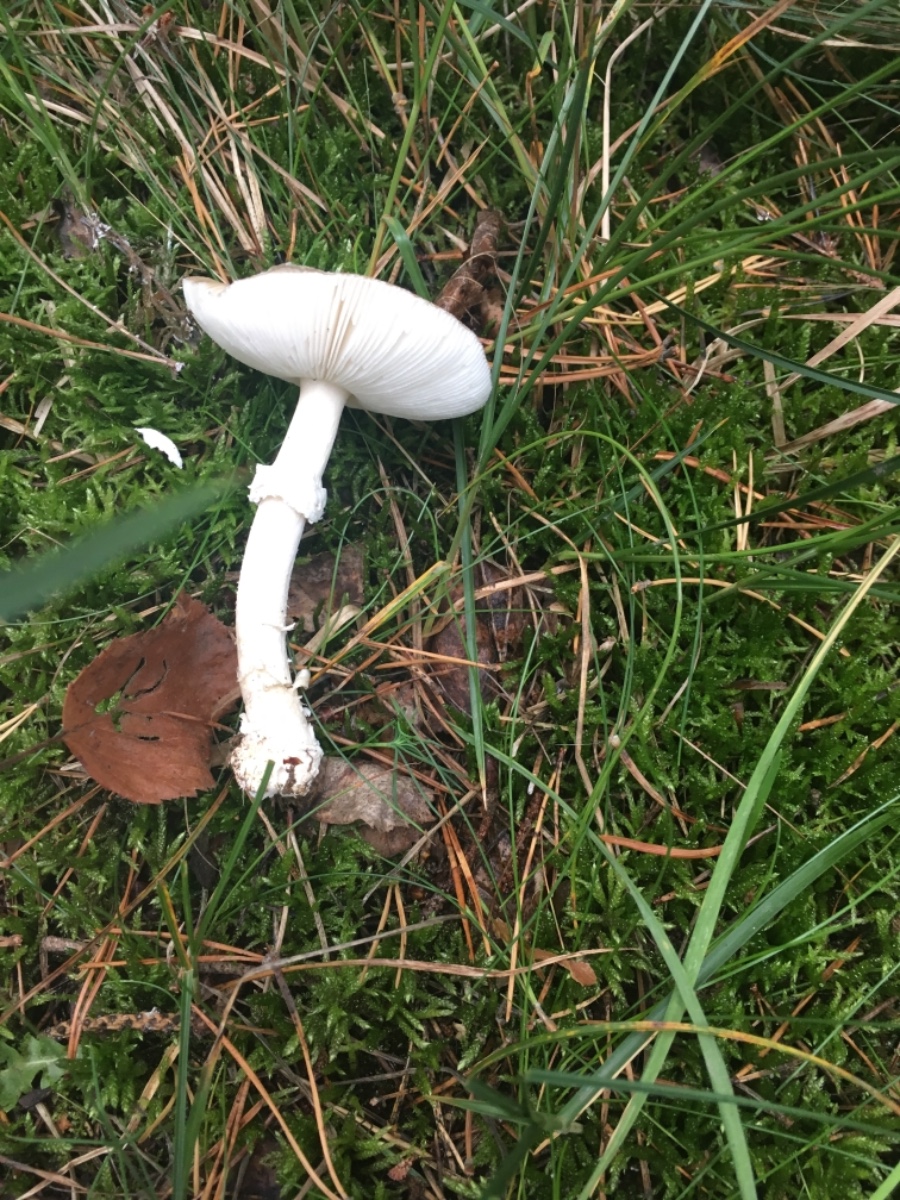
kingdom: Fungi
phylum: Basidiomycota
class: Agaricomycetes
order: Agaricales
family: Amanitaceae
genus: Amanita
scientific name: Amanita gemmata
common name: okkergul fluesvamp
